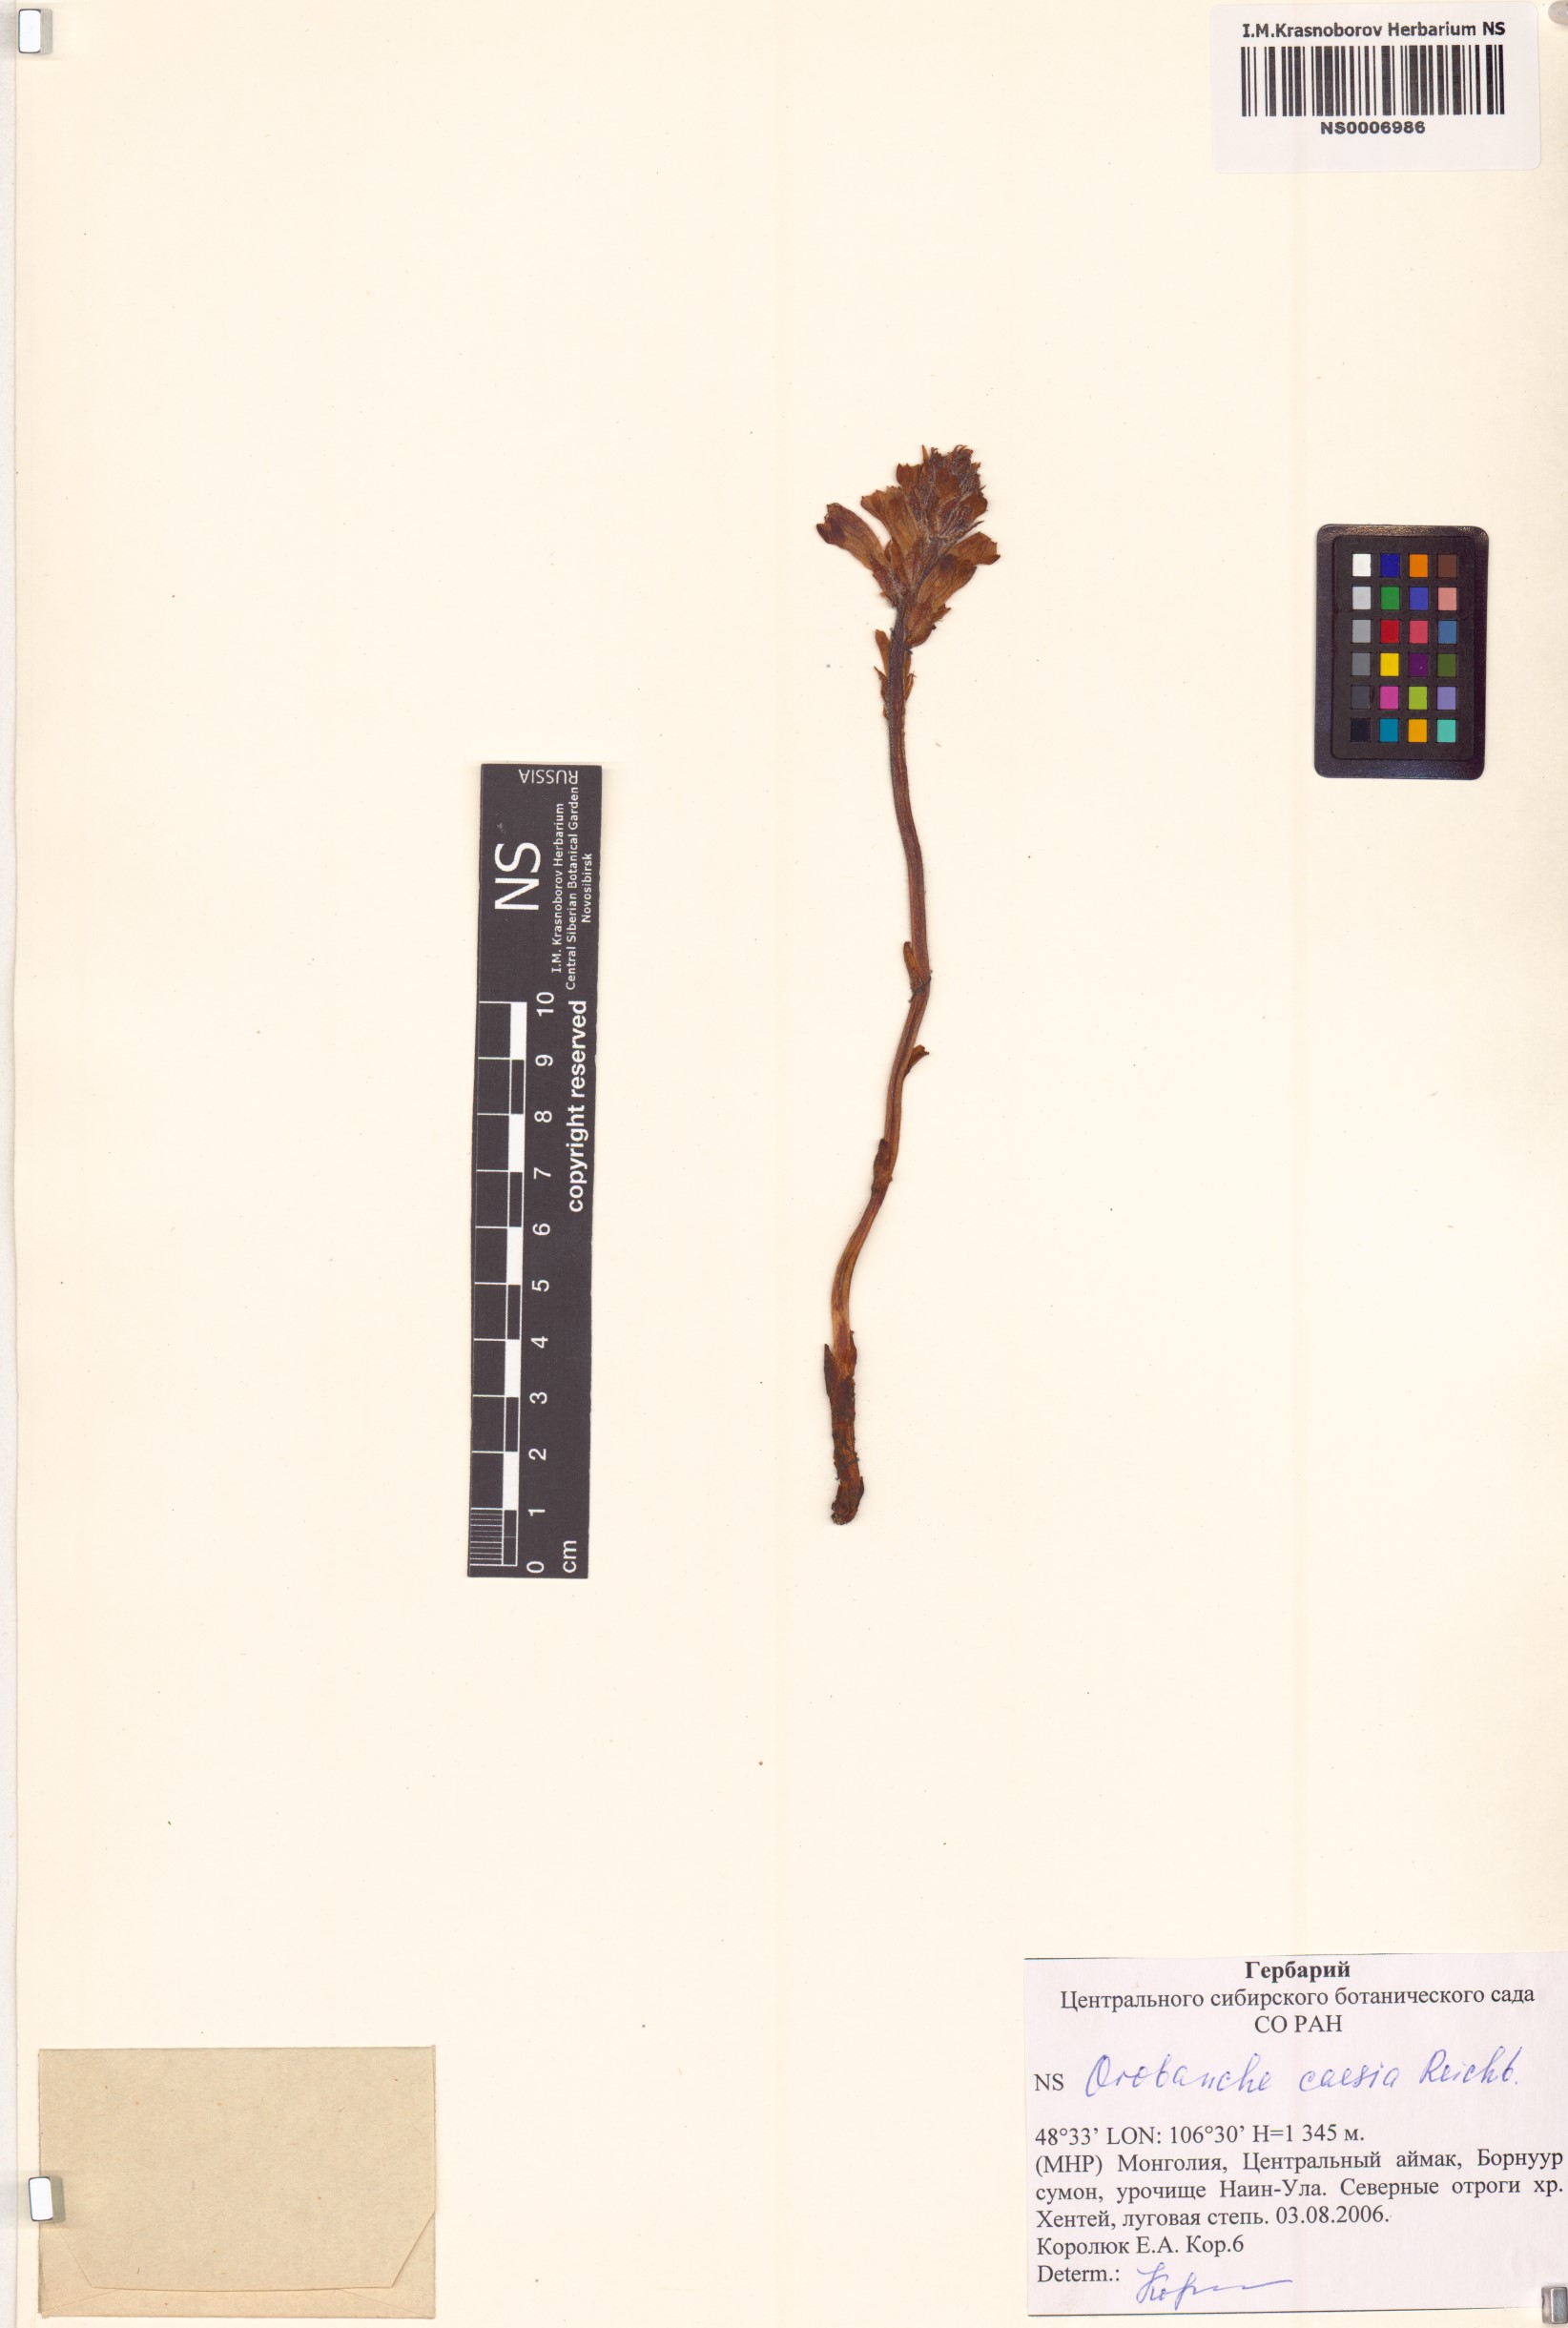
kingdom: Plantae
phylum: Tracheophyta
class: Magnoliopsida
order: Lamiales
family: Orobanchaceae
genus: Phelipanche
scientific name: Phelipanche caesia
